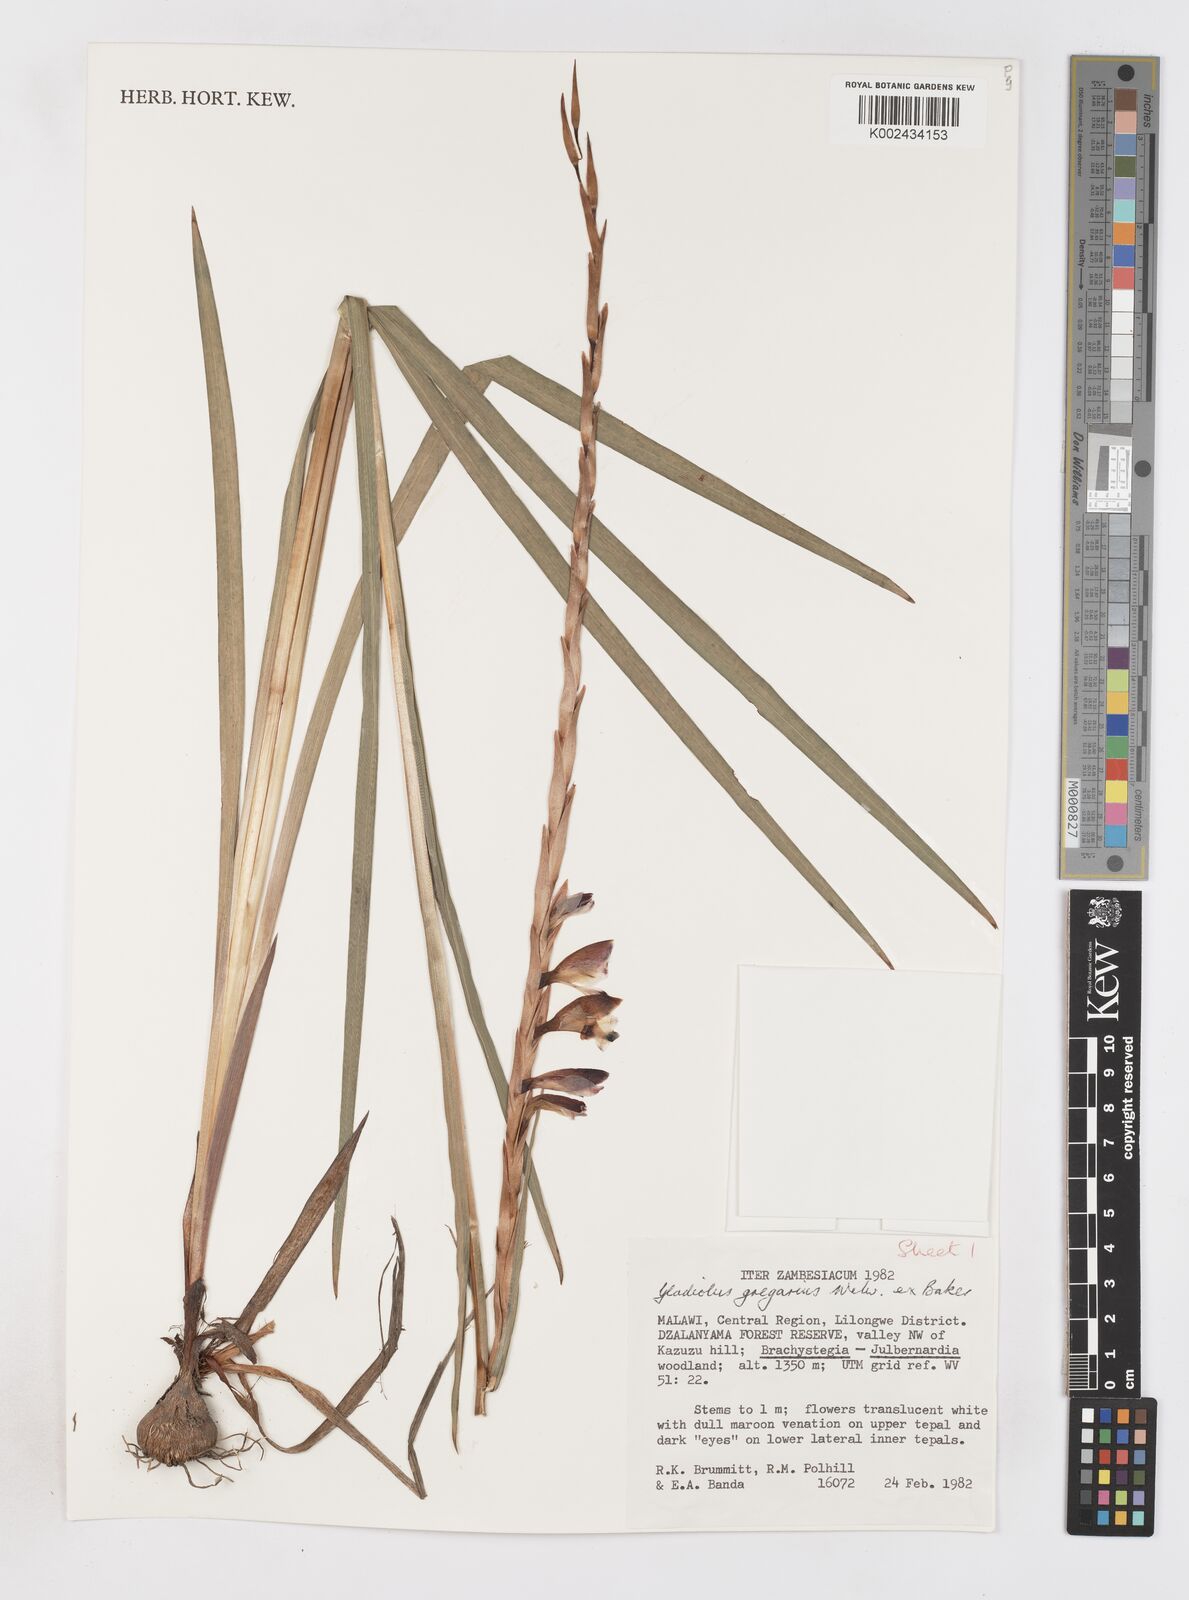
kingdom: Plantae
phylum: Tracheophyta
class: Liliopsida
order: Asparagales
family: Iridaceae
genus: Gladiolus
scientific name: Gladiolus gregarius
